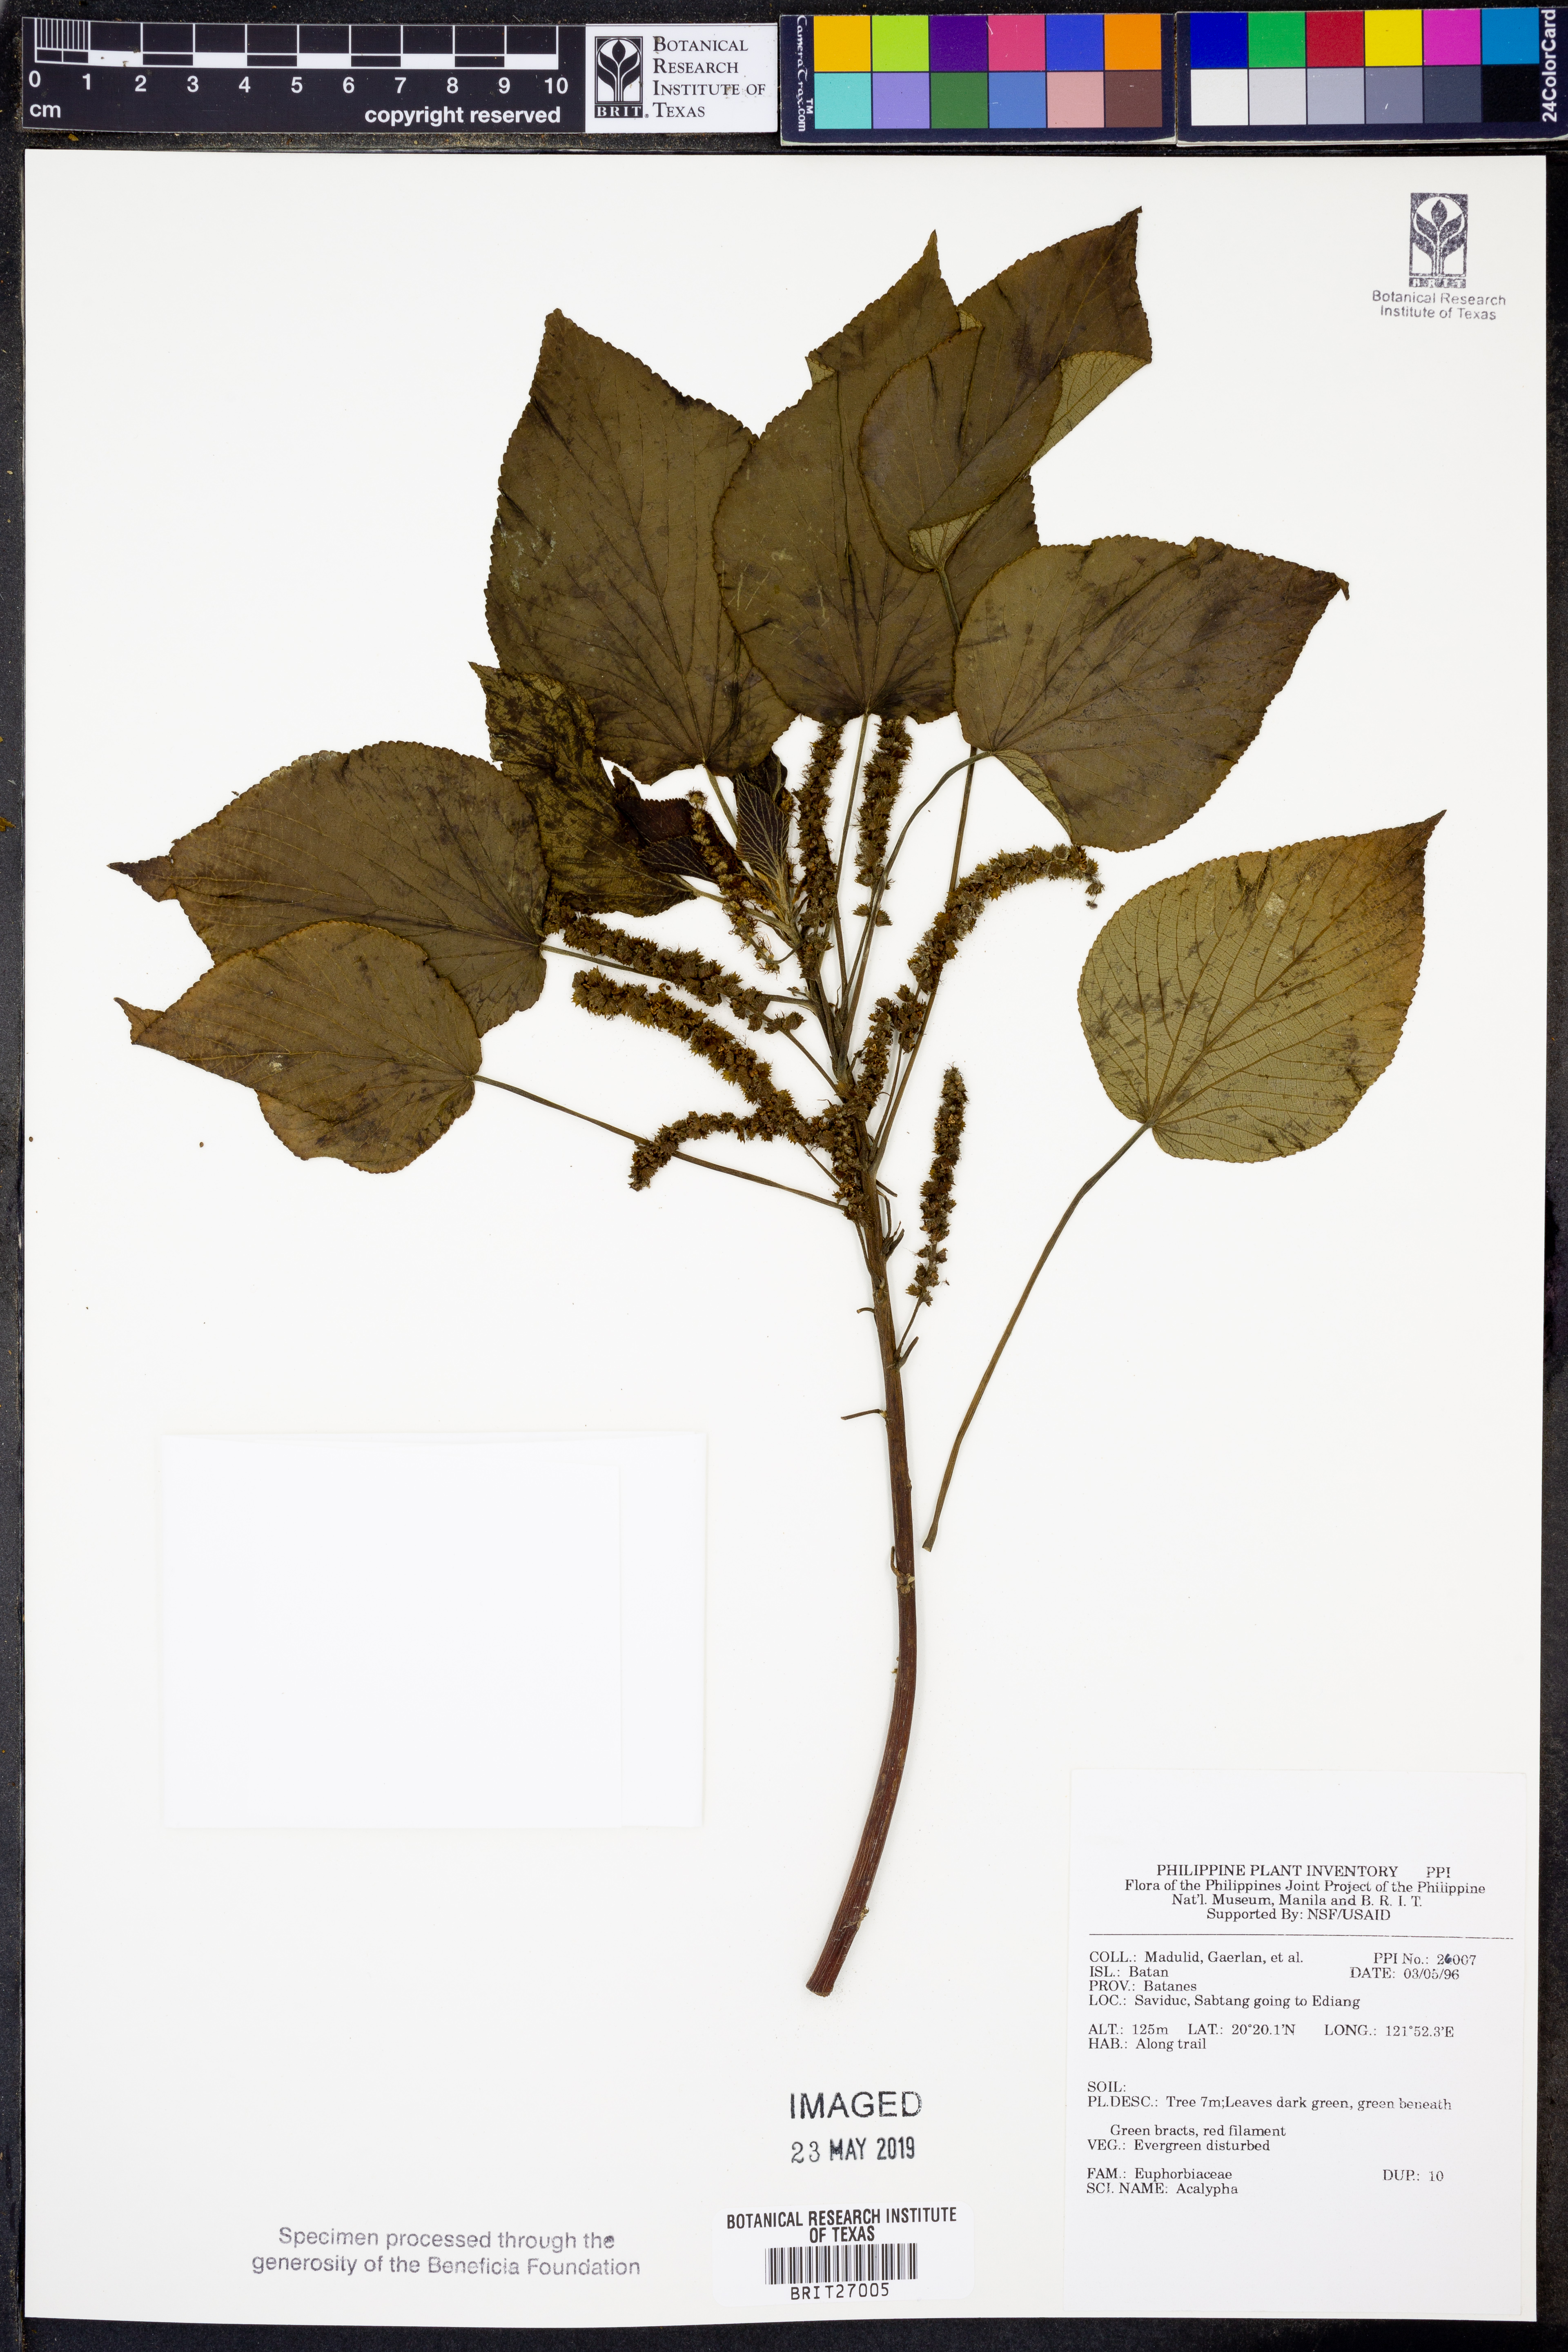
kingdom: Plantae
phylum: Tracheophyta
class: Magnoliopsida
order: Malpighiales
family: Euphorbiaceae
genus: Acalypha
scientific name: Acalypha
